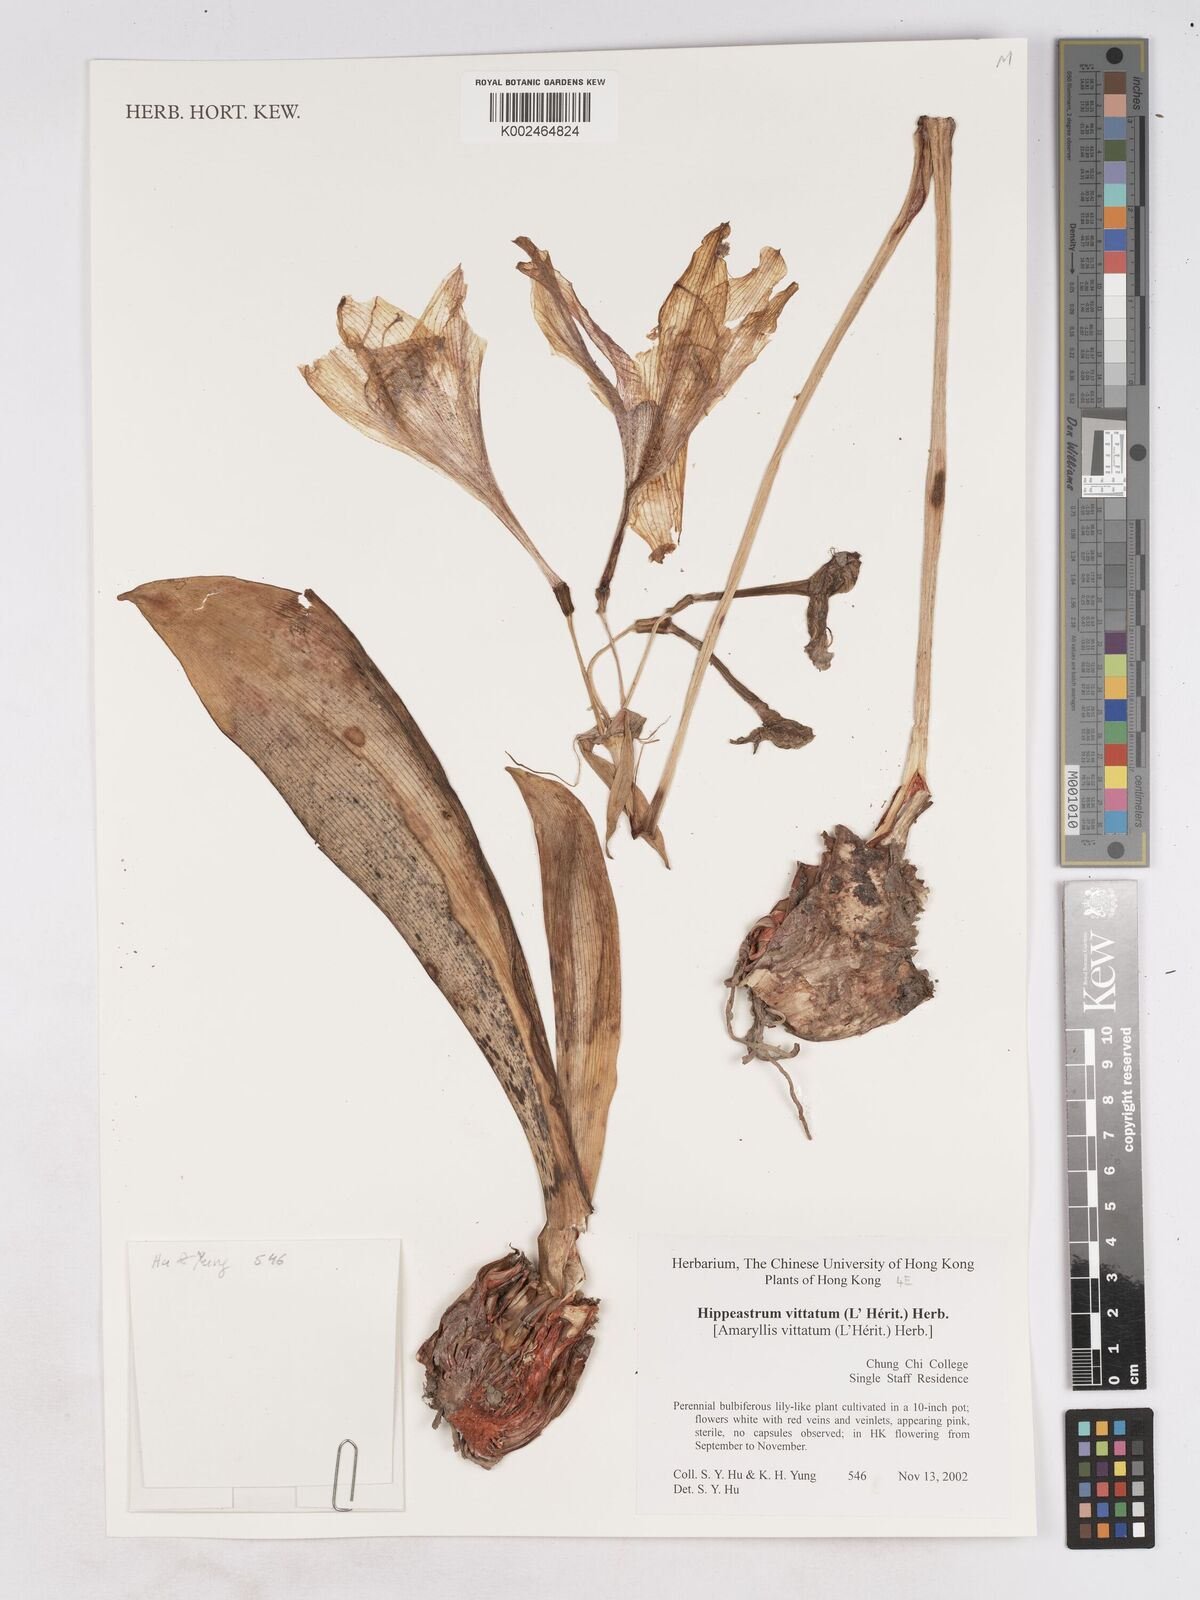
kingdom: Plantae
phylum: Tracheophyta
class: Liliopsida
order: Asparagales
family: Amaryllidaceae
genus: Hippeastrum
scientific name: Hippeastrum vittatum
